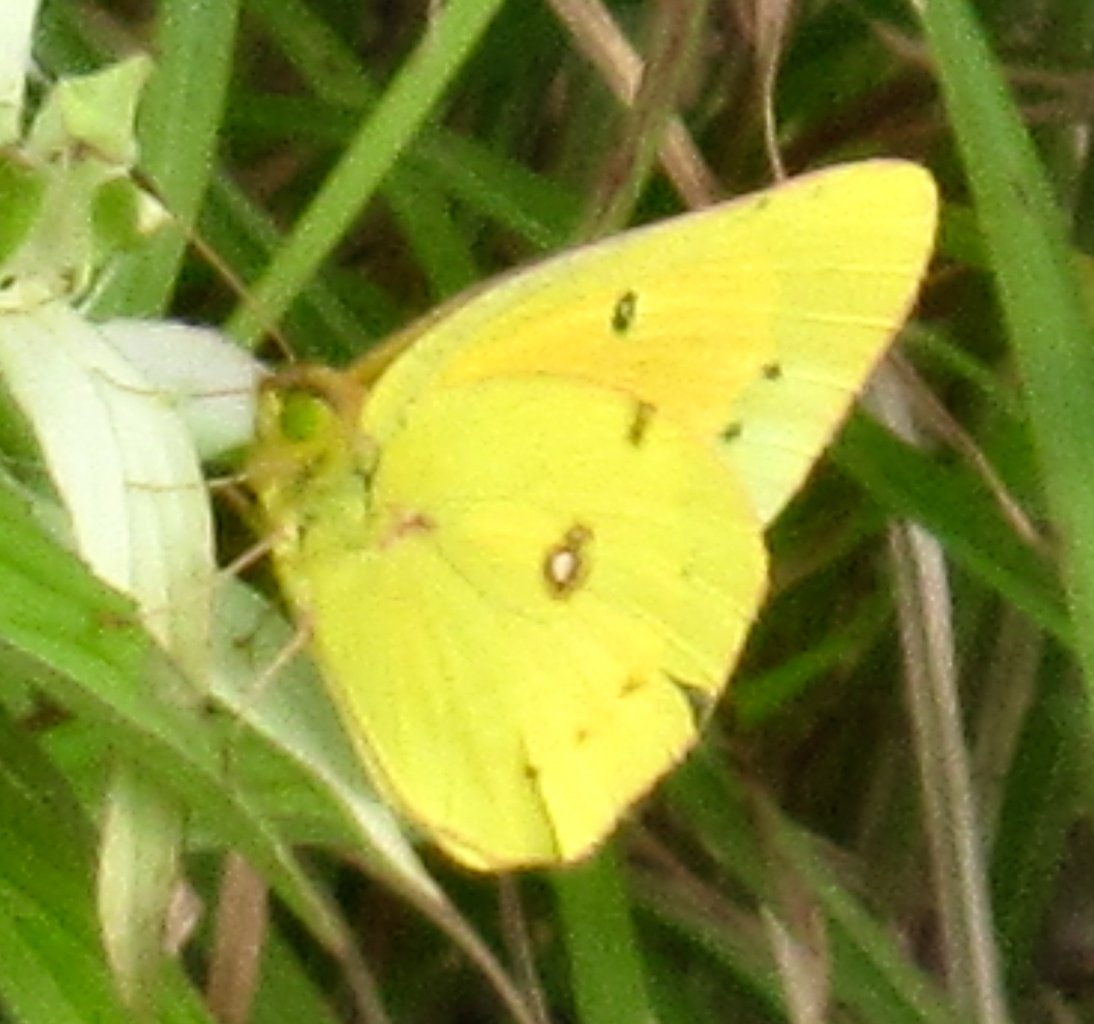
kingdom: Animalia
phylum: Arthropoda
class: Insecta
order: Lepidoptera
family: Pieridae
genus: Colias
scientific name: Colias eurytheme
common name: Orange Sulphur
